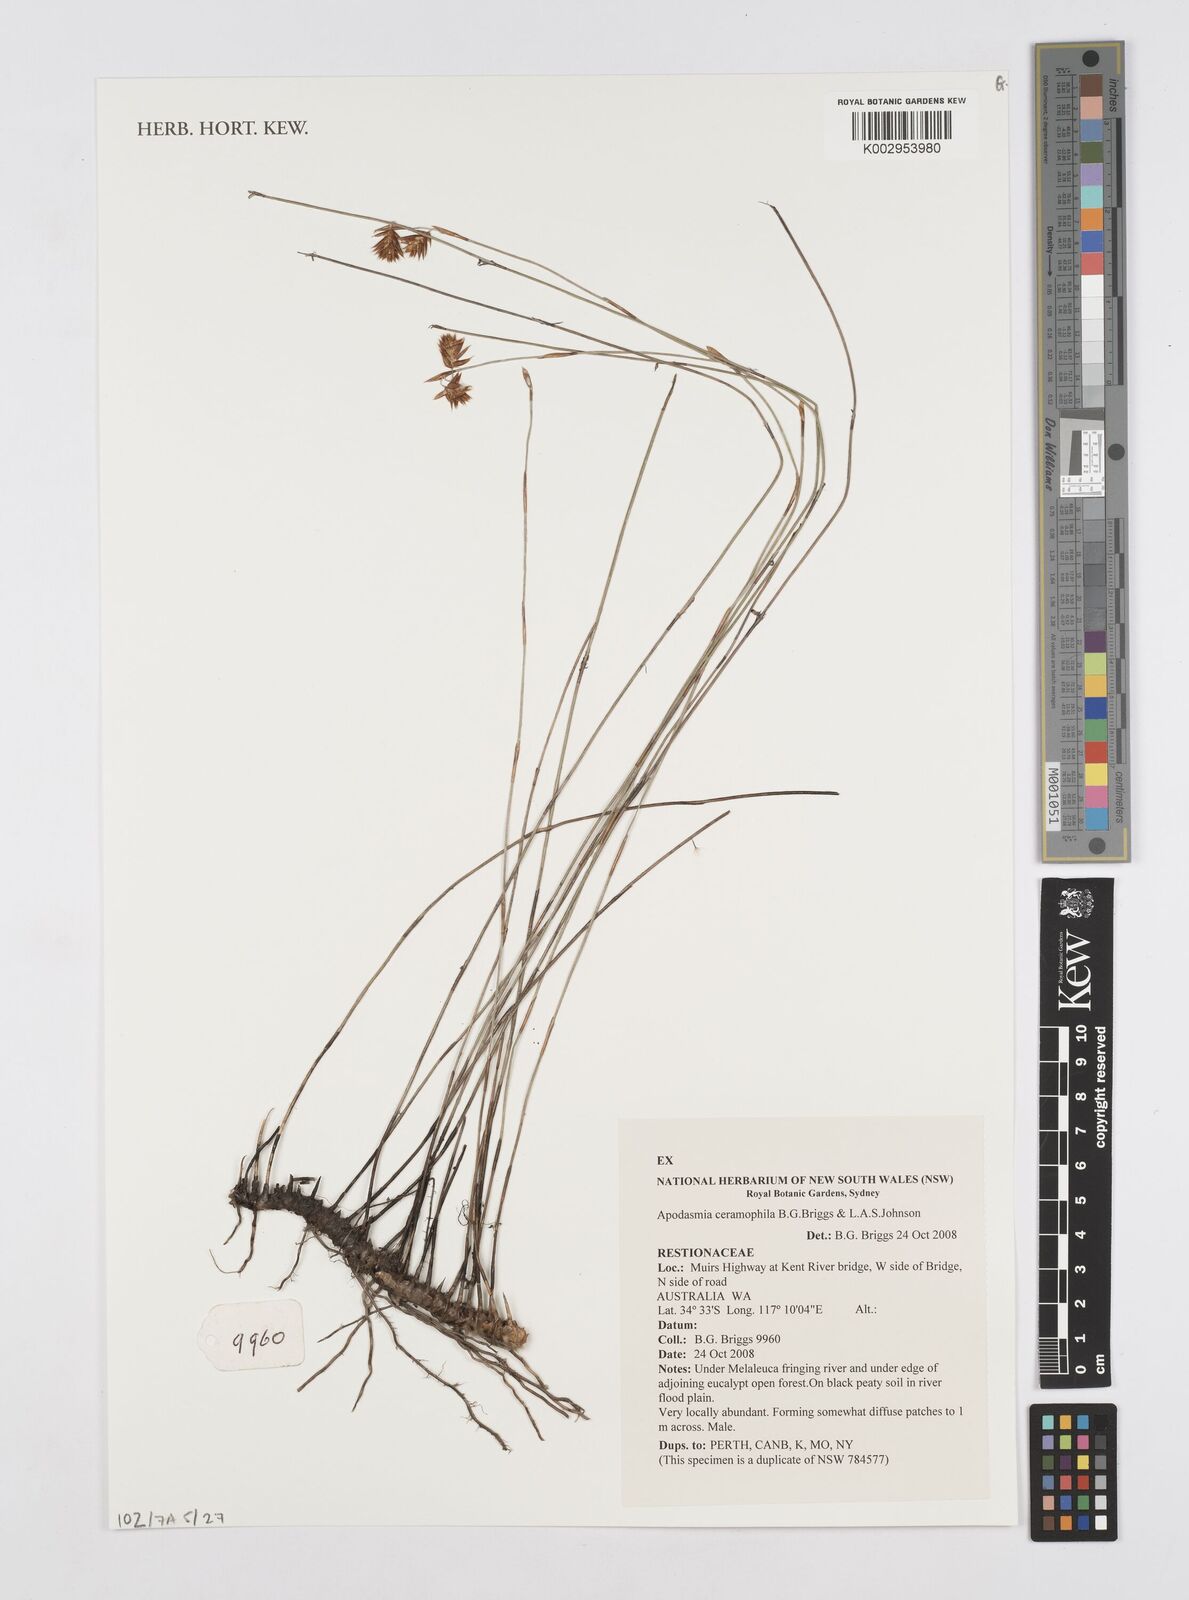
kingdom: Plantae
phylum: Tracheophyta
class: Liliopsida
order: Poales
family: Restionaceae
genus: Apodasmia
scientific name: Apodasmia ceramophila
